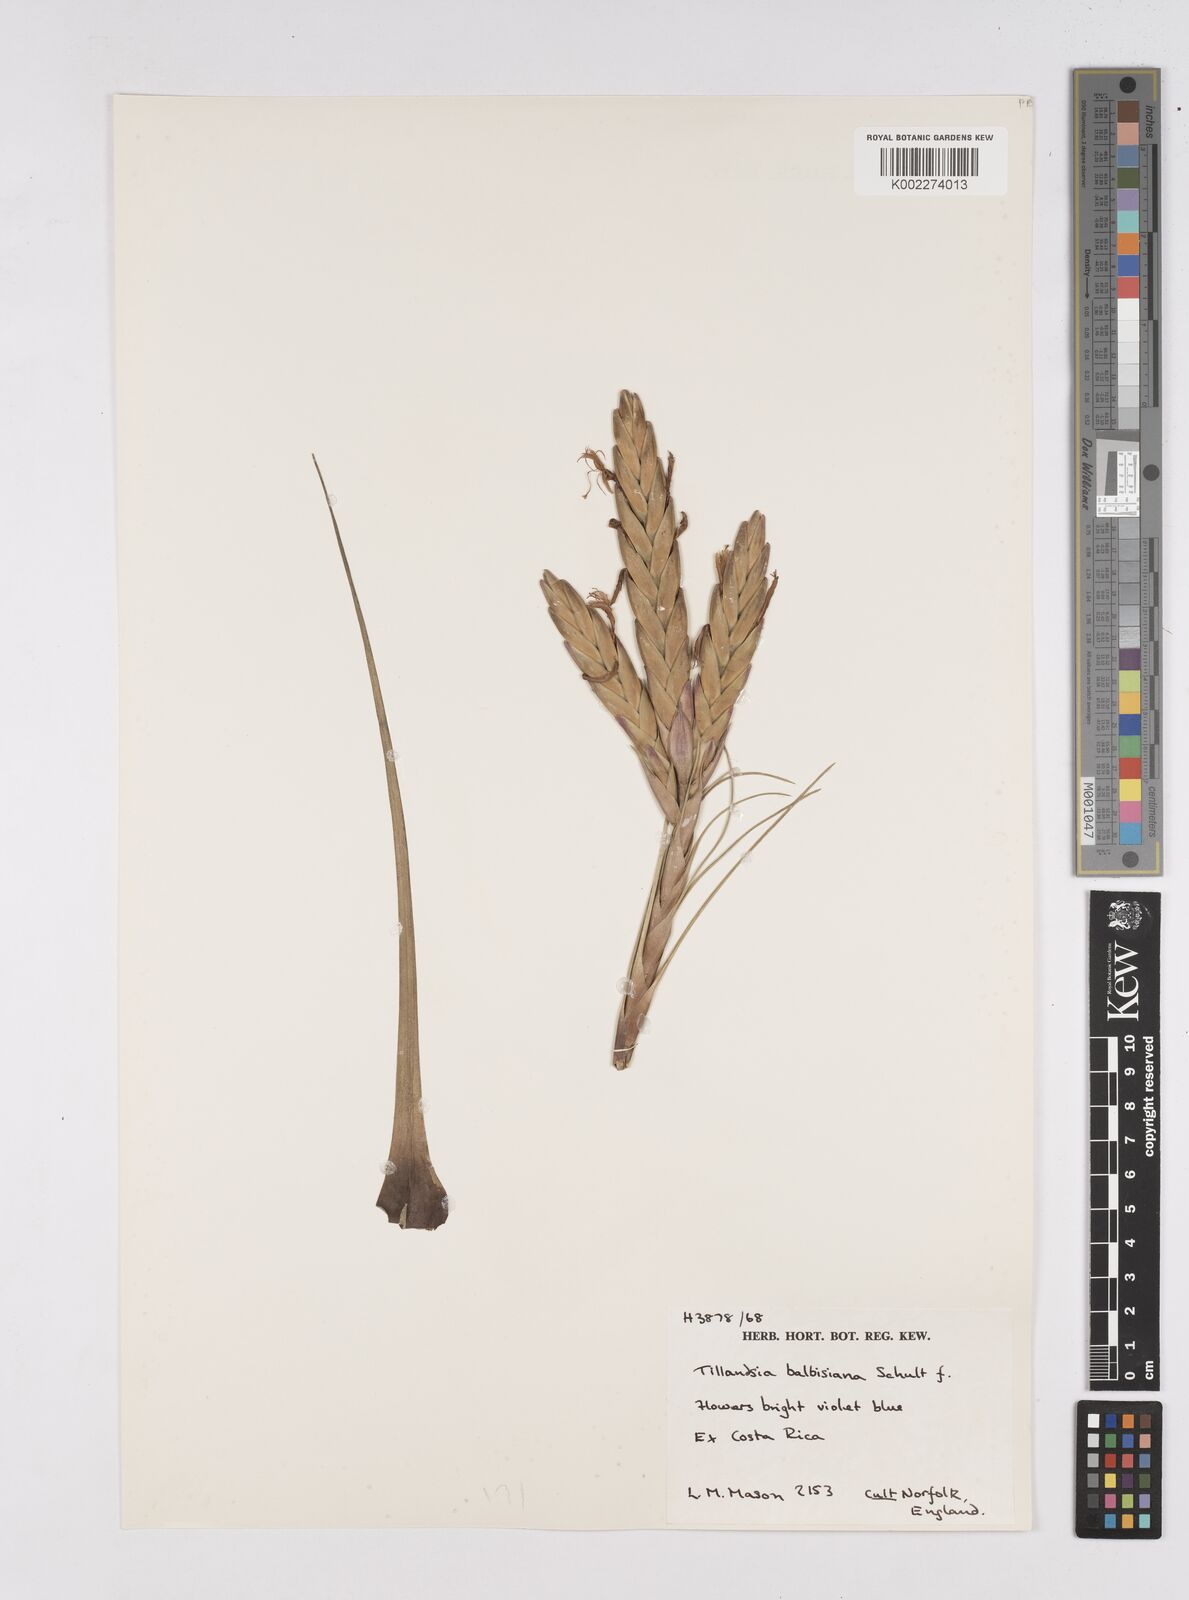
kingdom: Plantae
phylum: Tracheophyta
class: Liliopsida
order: Poales
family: Bromeliaceae
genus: Tillandsia
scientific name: Tillandsia balbisiana
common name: Northern needleleaf
